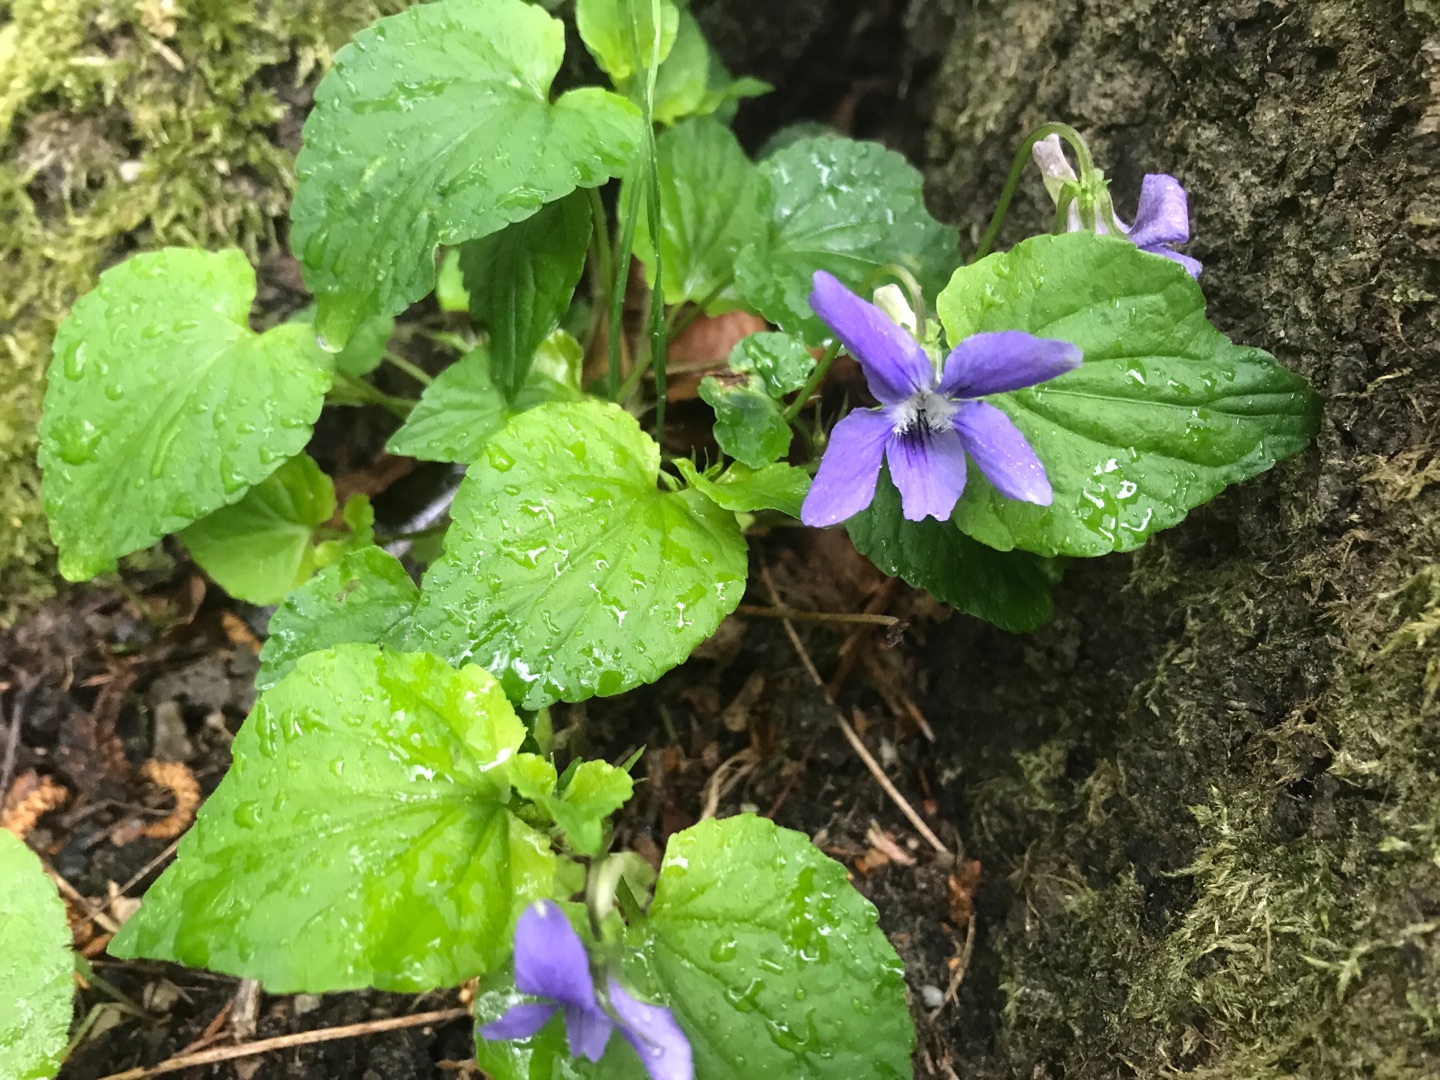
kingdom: Plantae
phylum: Tracheophyta
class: Magnoliopsida
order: Malpighiales
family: Violaceae
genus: Viola
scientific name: Viola riviniana
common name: Krat-viol
